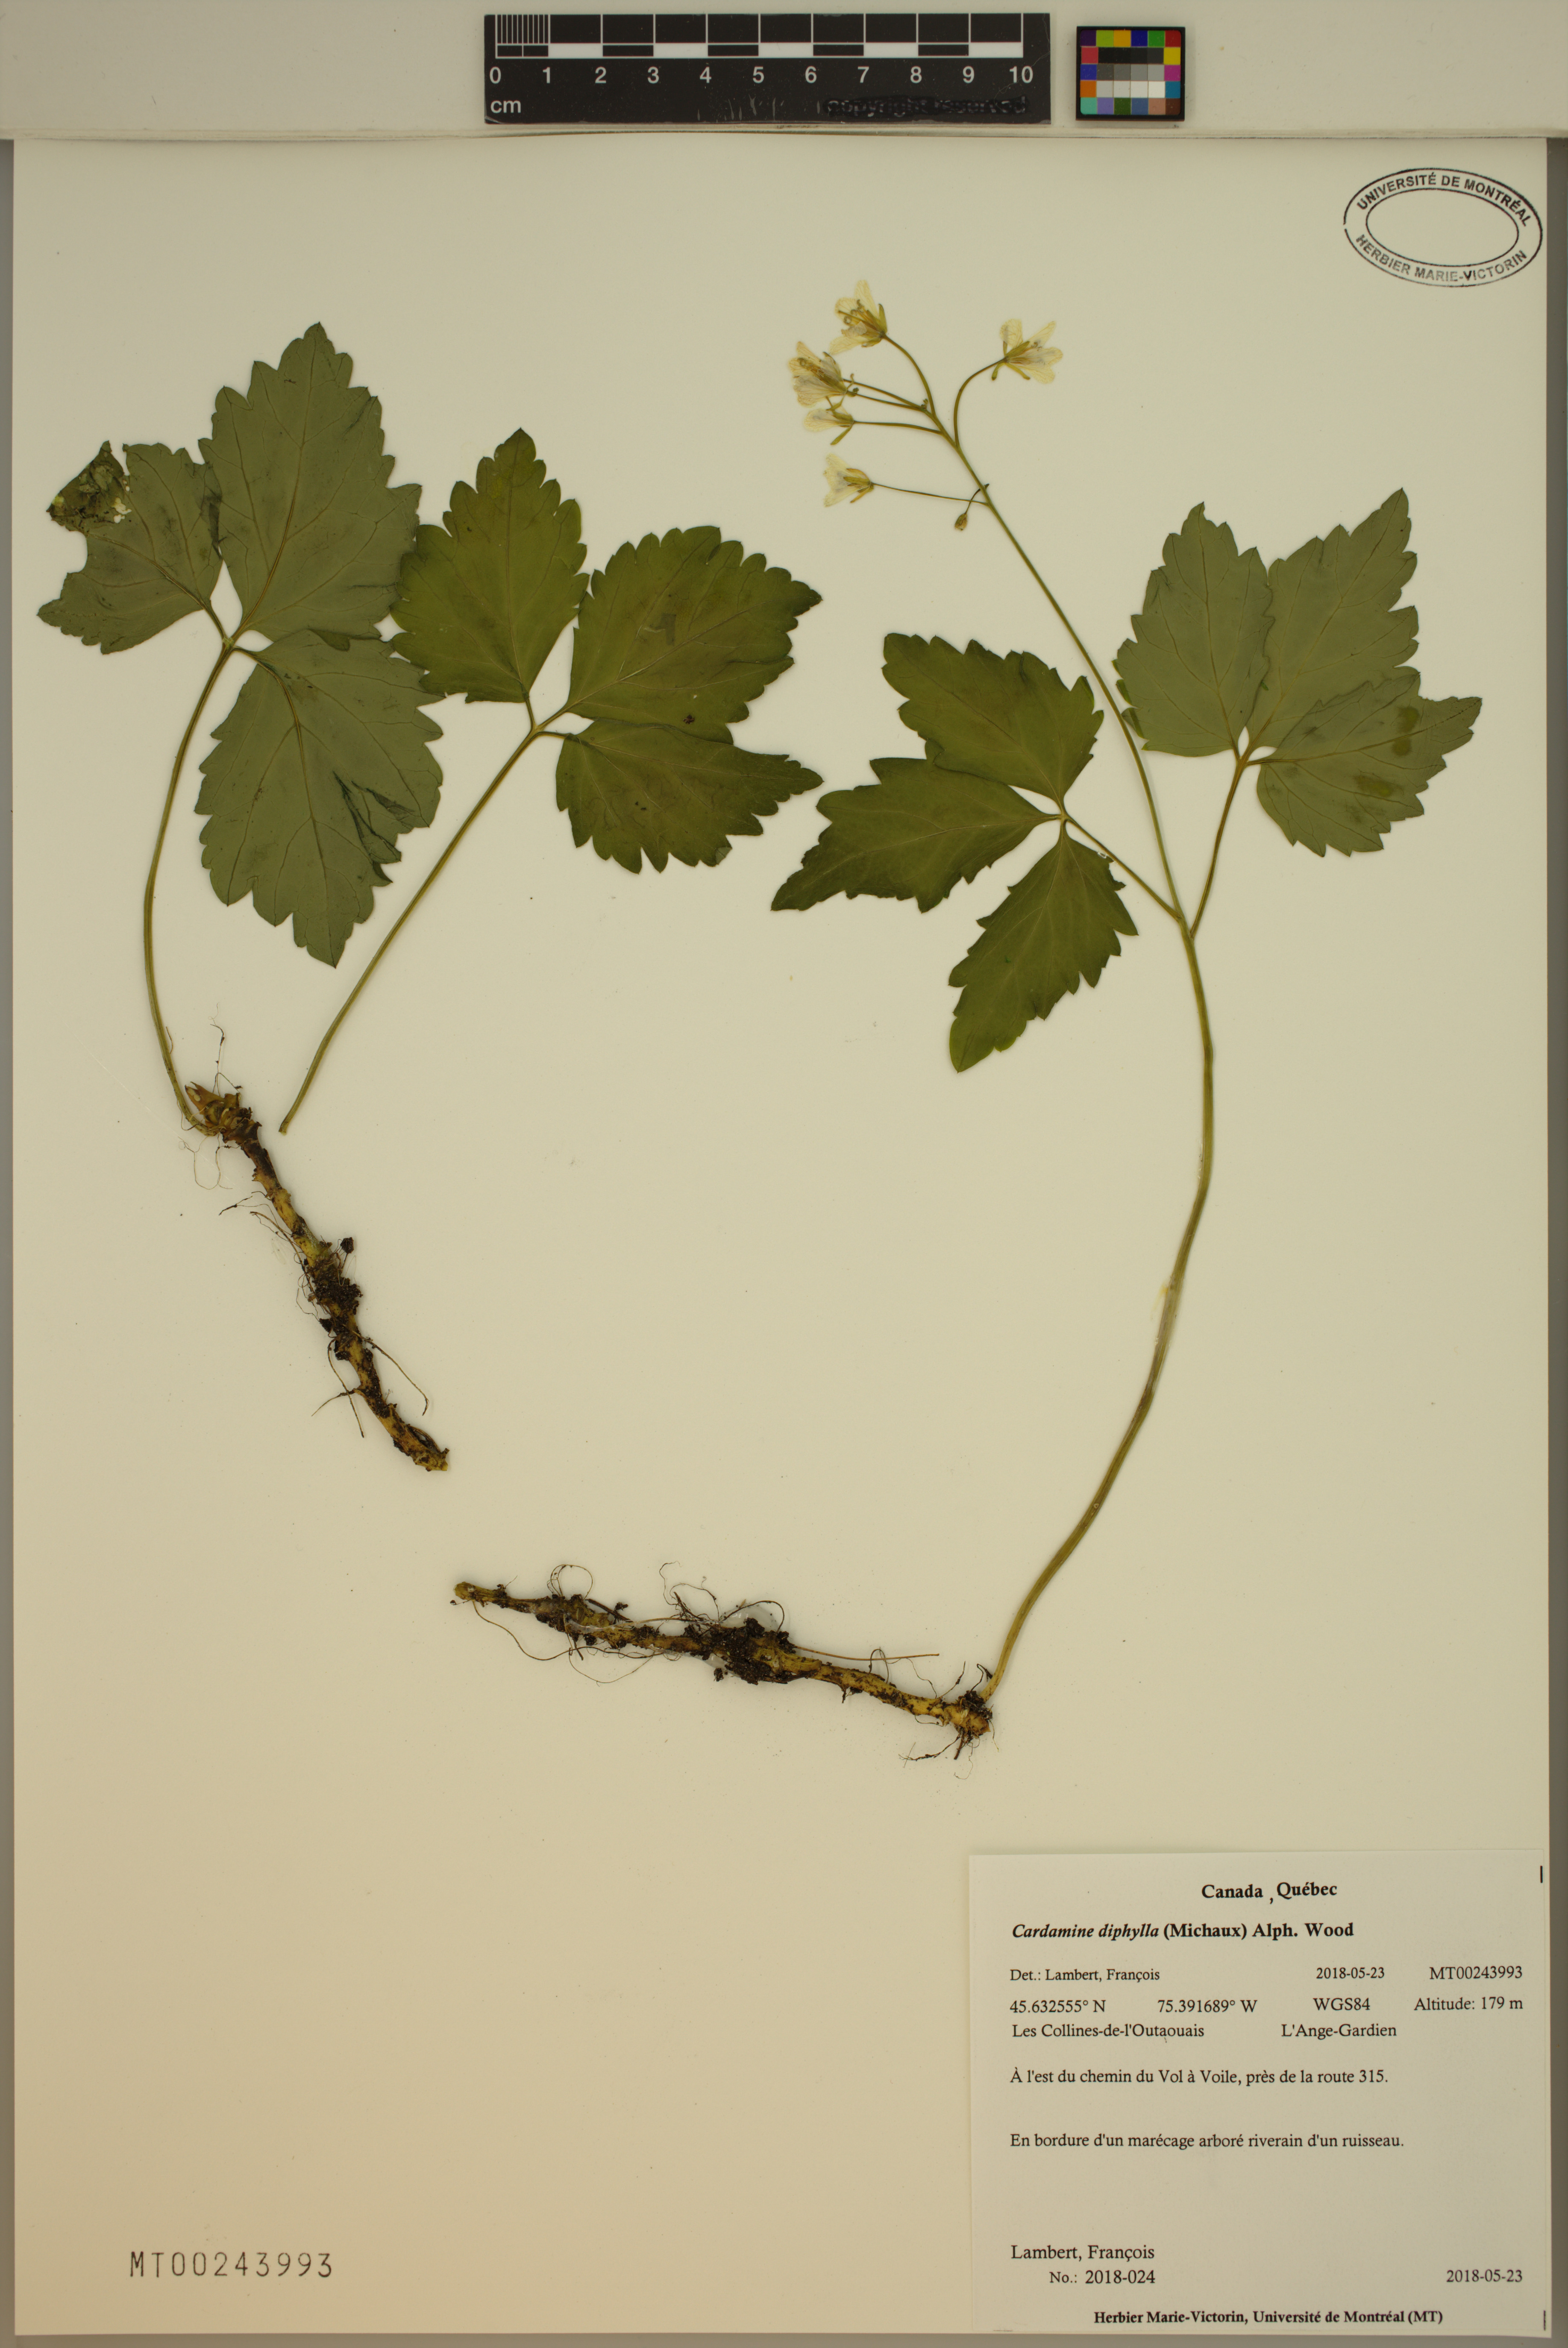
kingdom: Plantae
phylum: Tracheophyta
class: Magnoliopsida
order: Brassicales
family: Brassicaceae
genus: Cardamine
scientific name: Cardamine diphylla
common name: Broad-leaved toothwort
